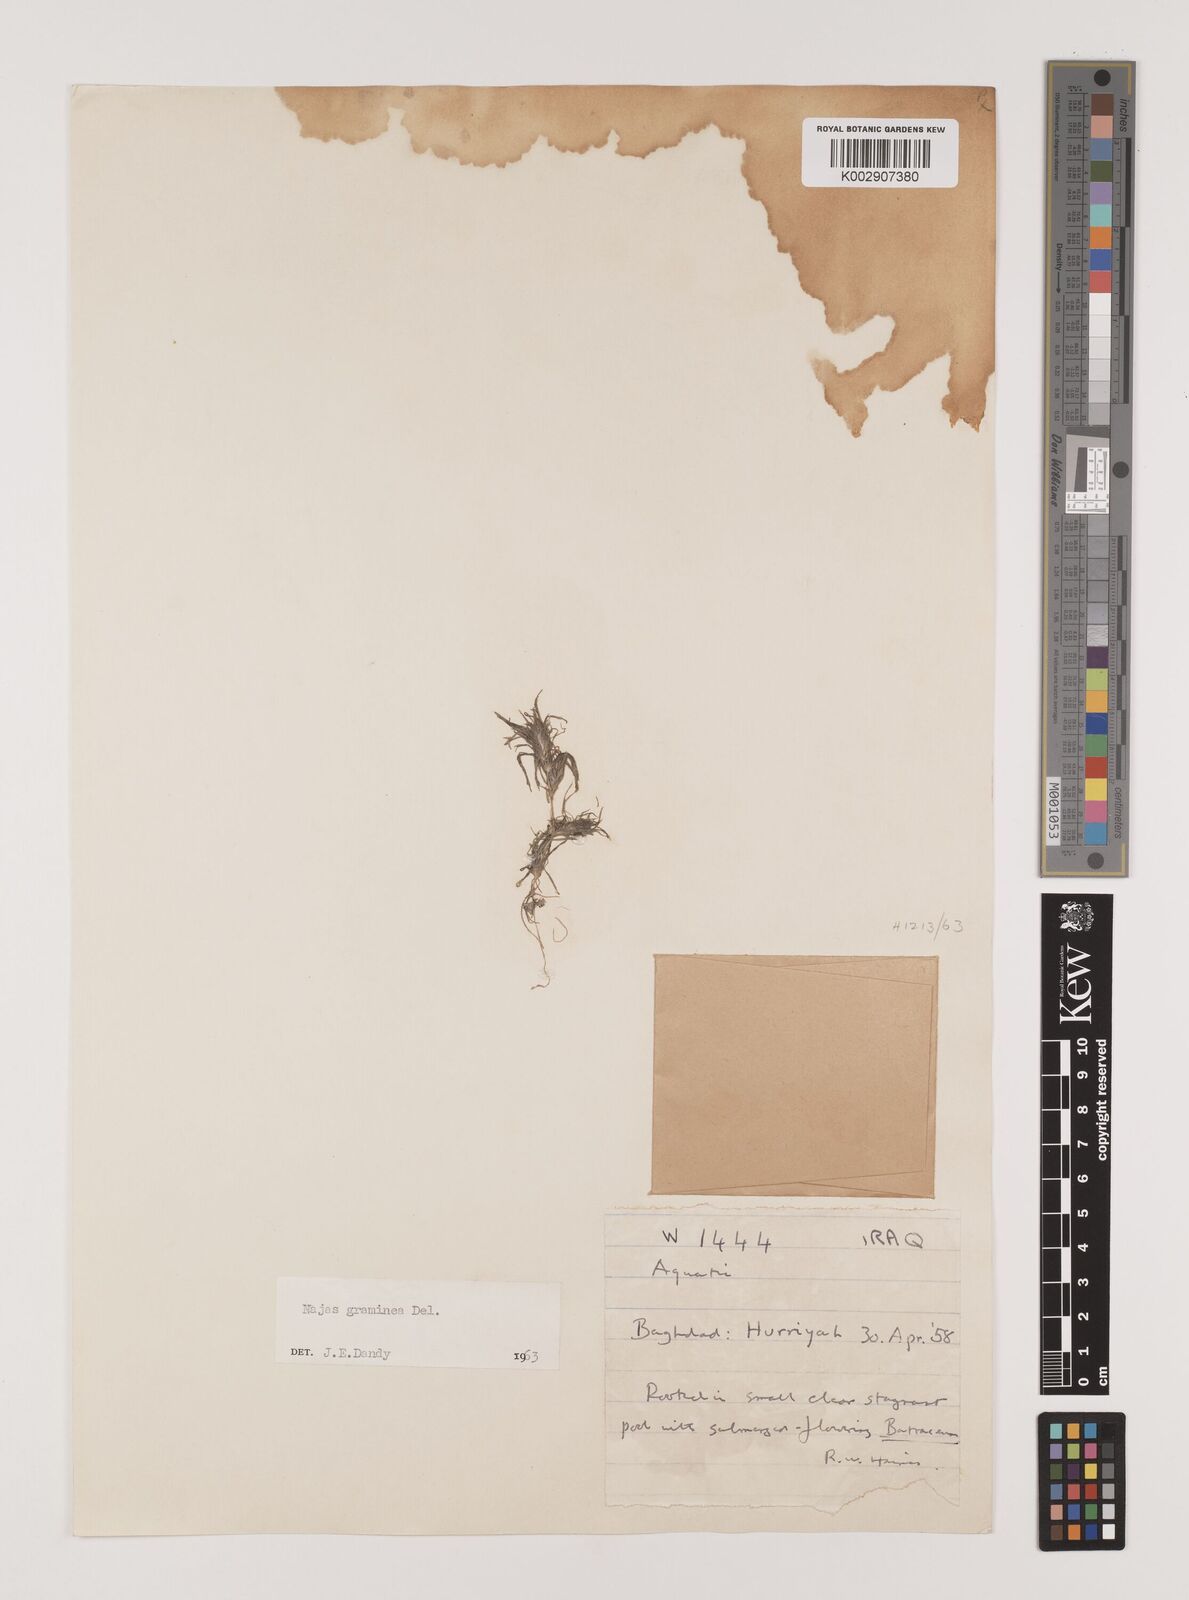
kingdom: Plantae
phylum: Tracheophyta
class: Liliopsida
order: Alismatales
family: Hydrocharitaceae
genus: Najas
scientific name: Najas graminea
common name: Ricefield waternymph
